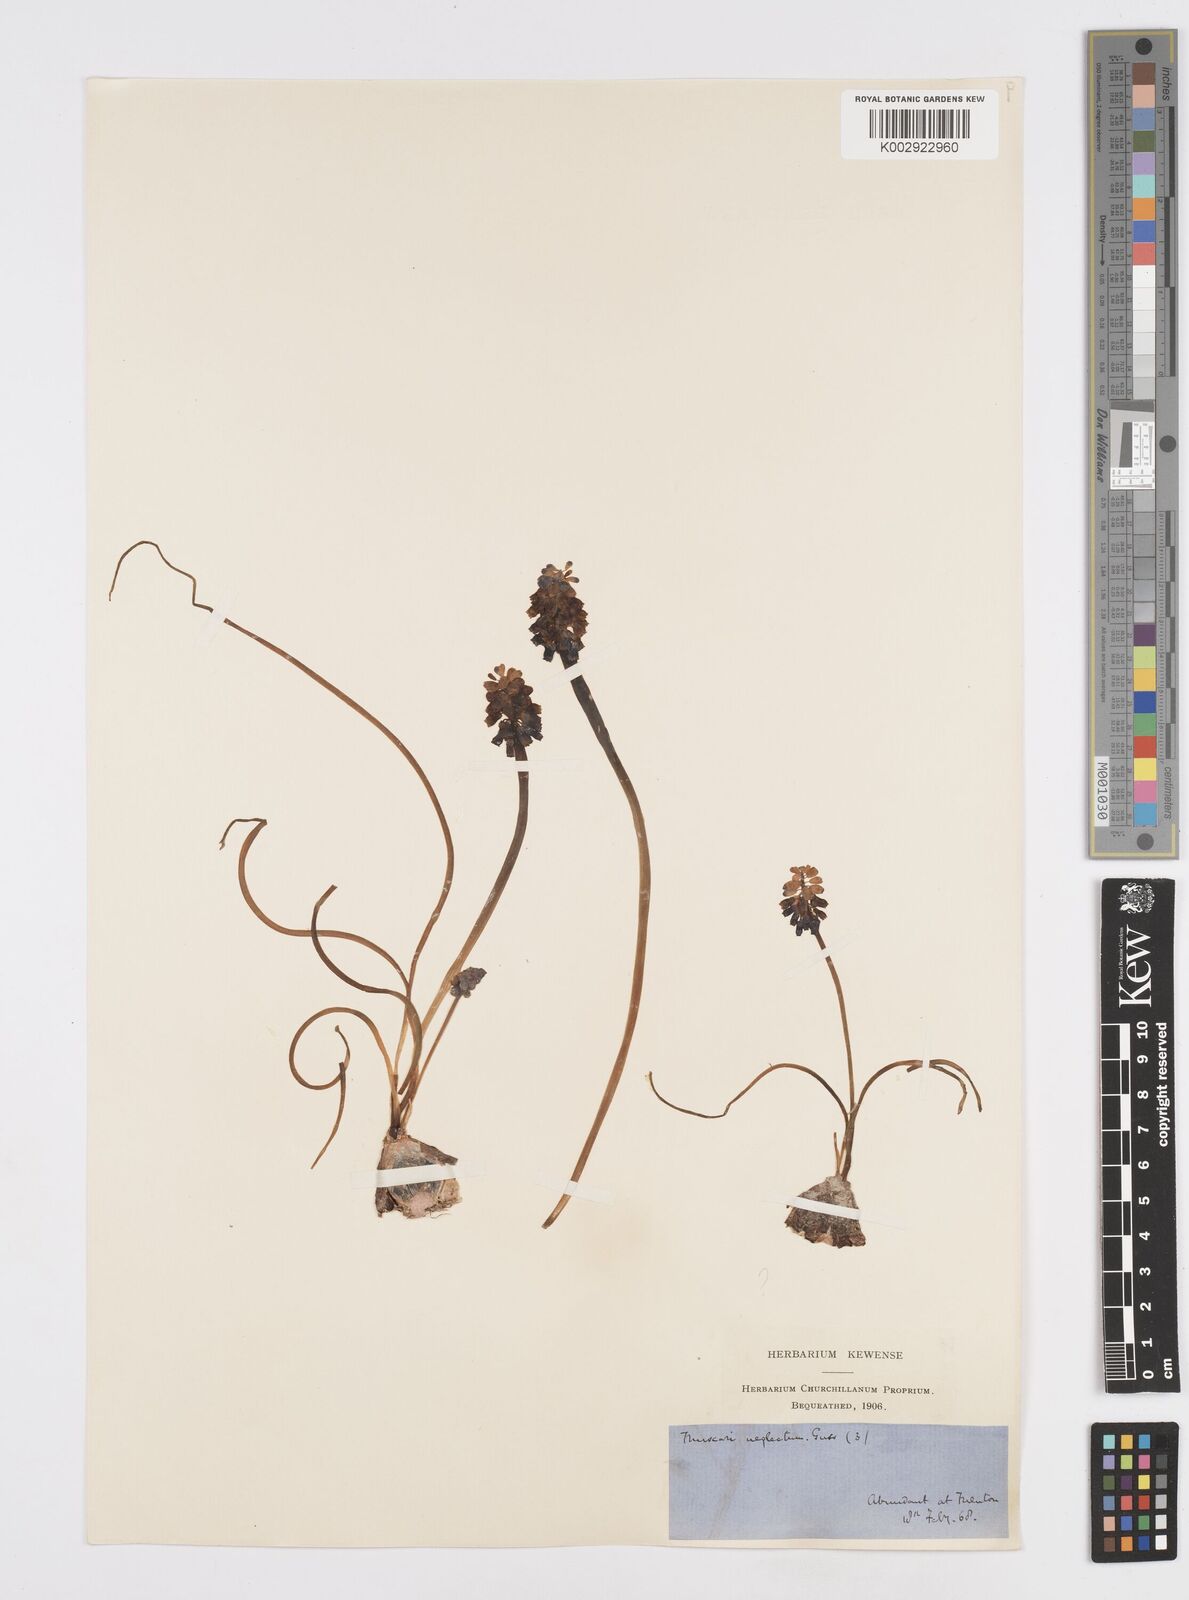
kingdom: Plantae
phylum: Tracheophyta
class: Liliopsida
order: Asparagales
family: Asparagaceae
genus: Muscari
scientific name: Muscari neglectum
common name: Grape-hyacinth
